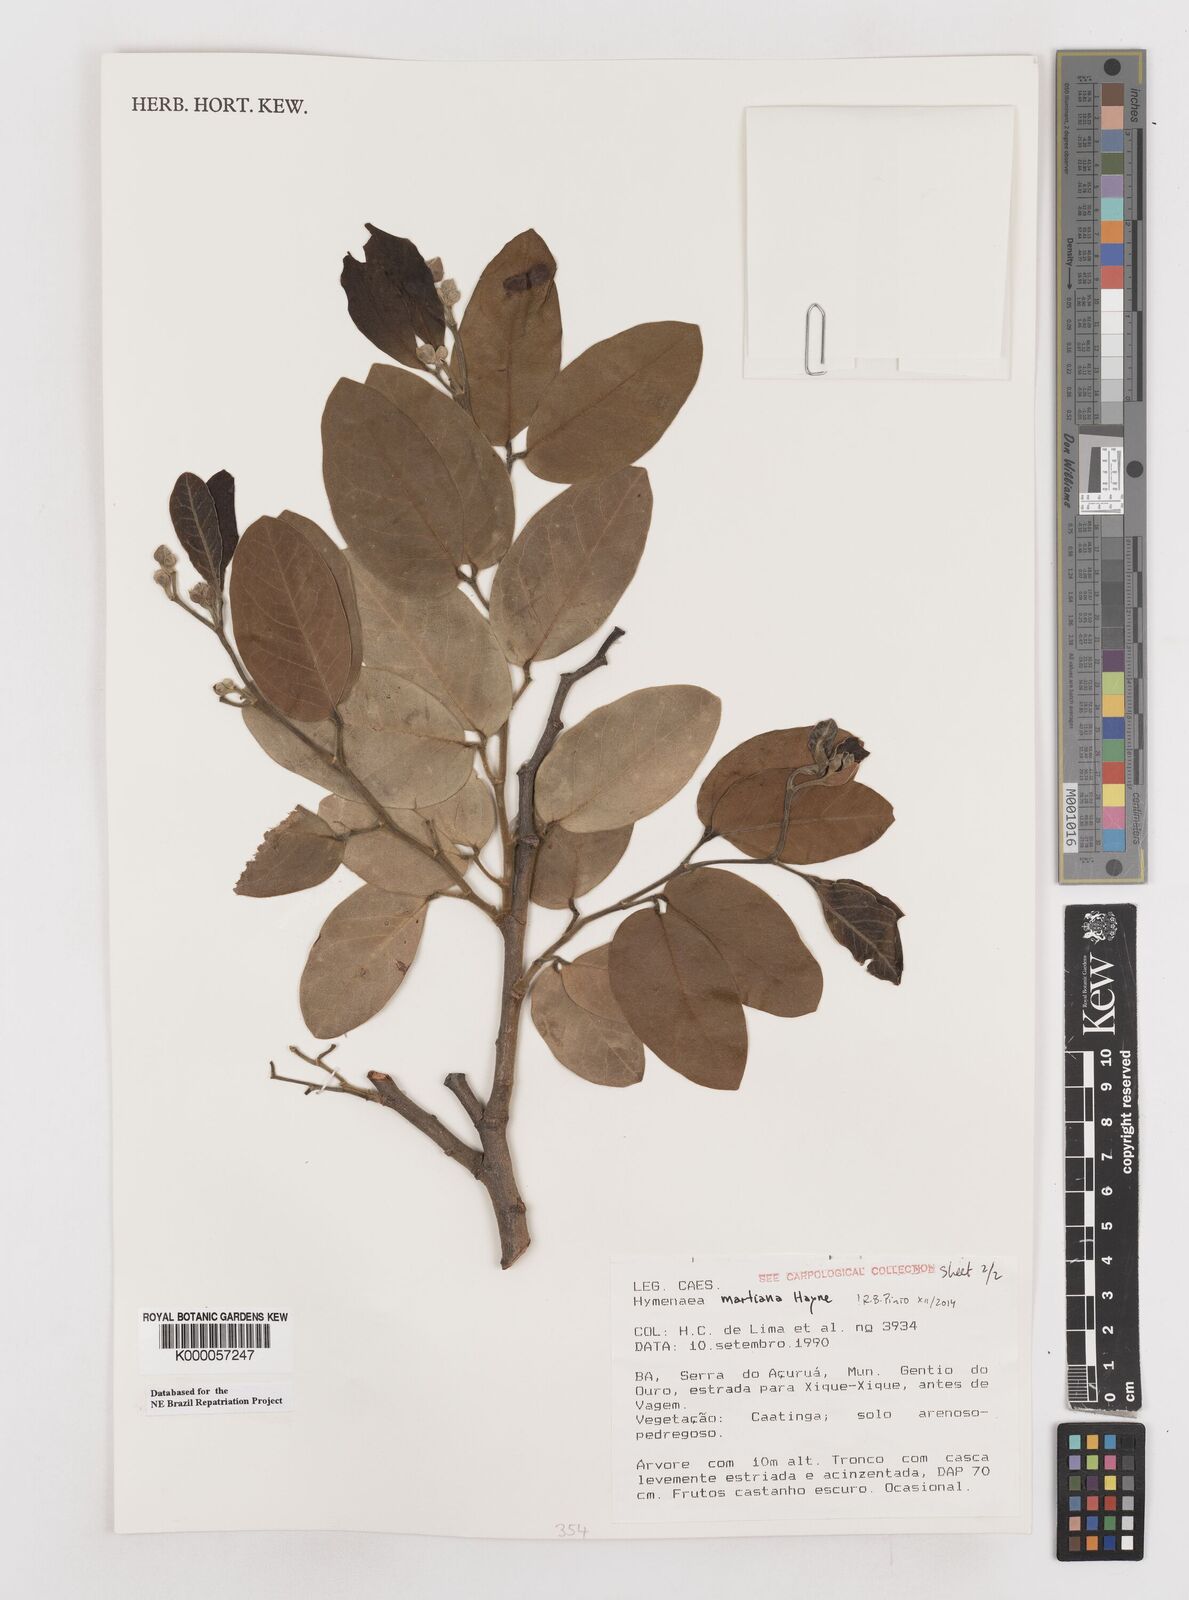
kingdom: Plantae
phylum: Tracheophyta
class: Magnoliopsida
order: Fabales
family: Fabaceae
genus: Hymenaea
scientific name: Hymenaea martiana
